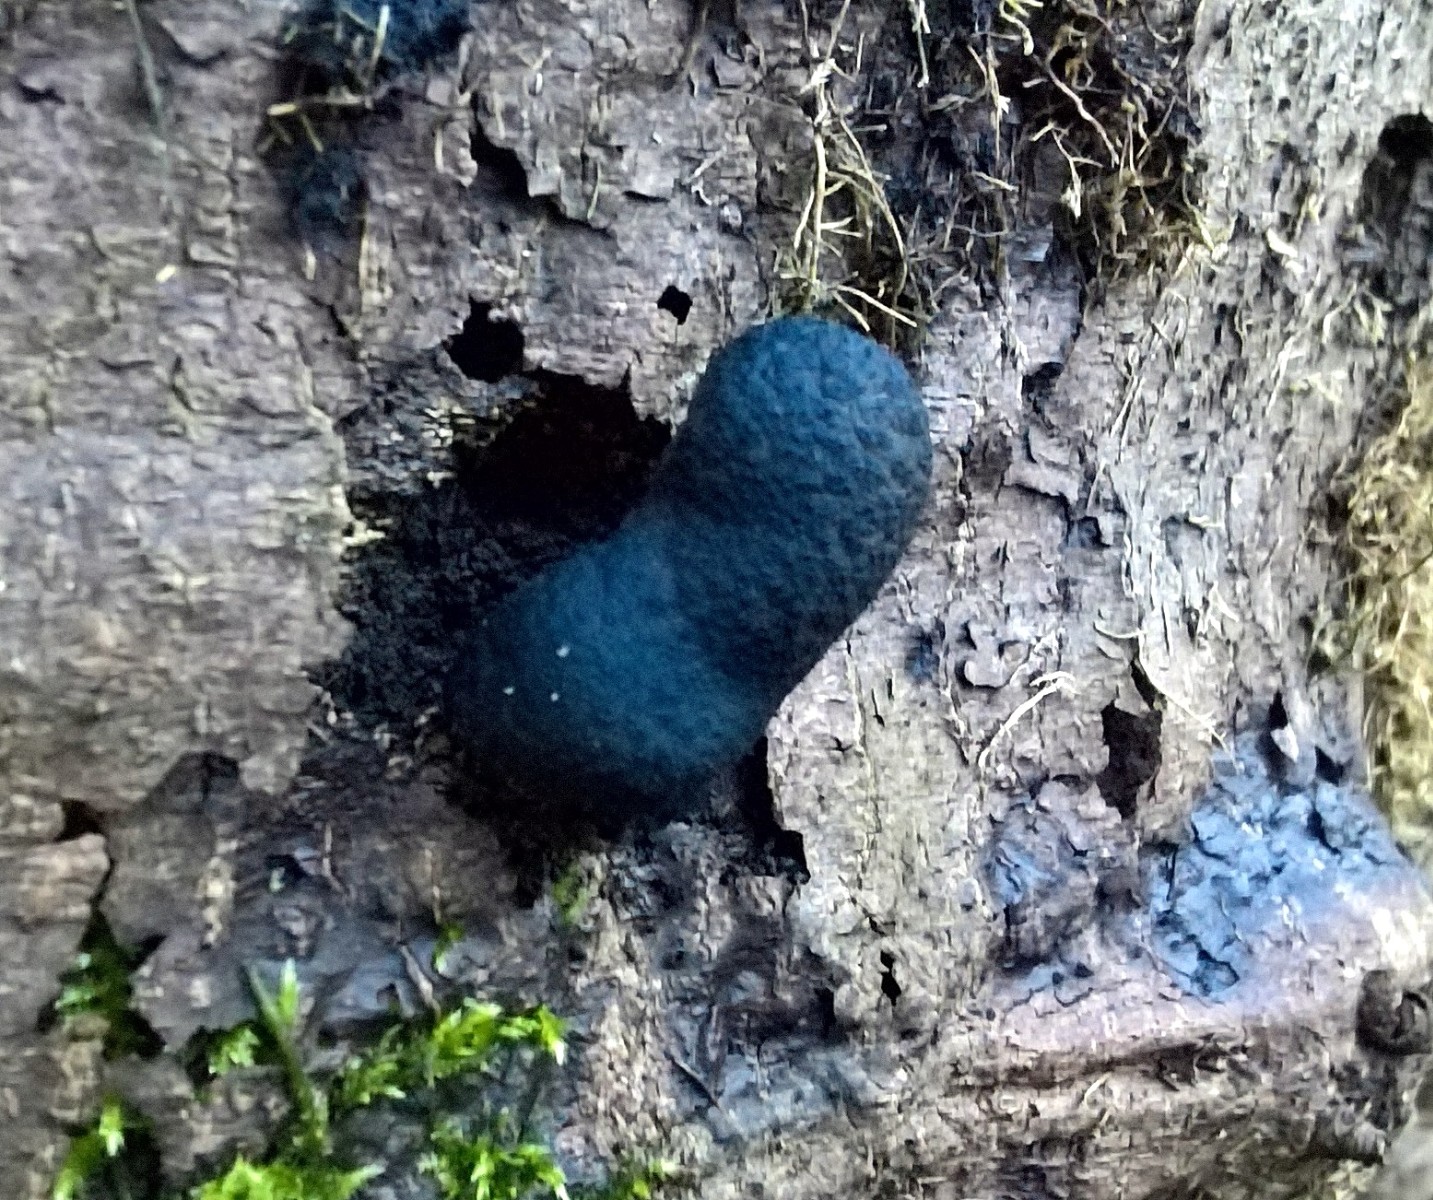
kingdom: Fungi
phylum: Ascomycota
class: Sordariomycetes
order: Xylariales
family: Xylariaceae
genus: Xylaria
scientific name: Xylaria polymorpha
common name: kølle-stødsvamp
